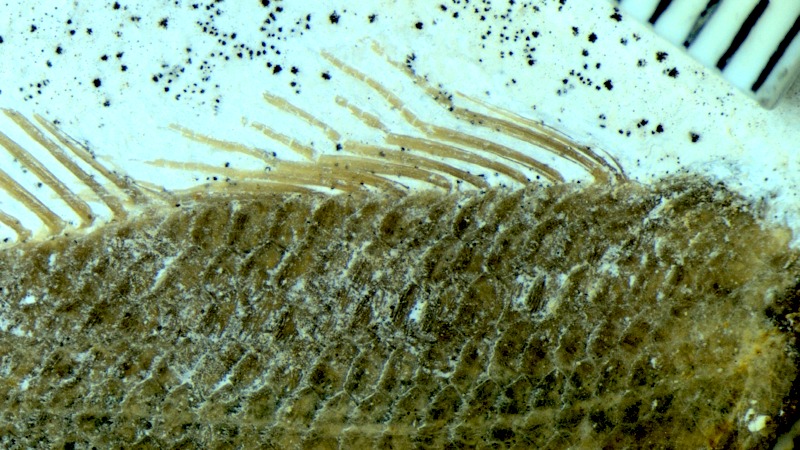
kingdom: Animalia
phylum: Chordata
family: Macrosemiidae
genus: Notagogus
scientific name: Notagogus denticulatus
